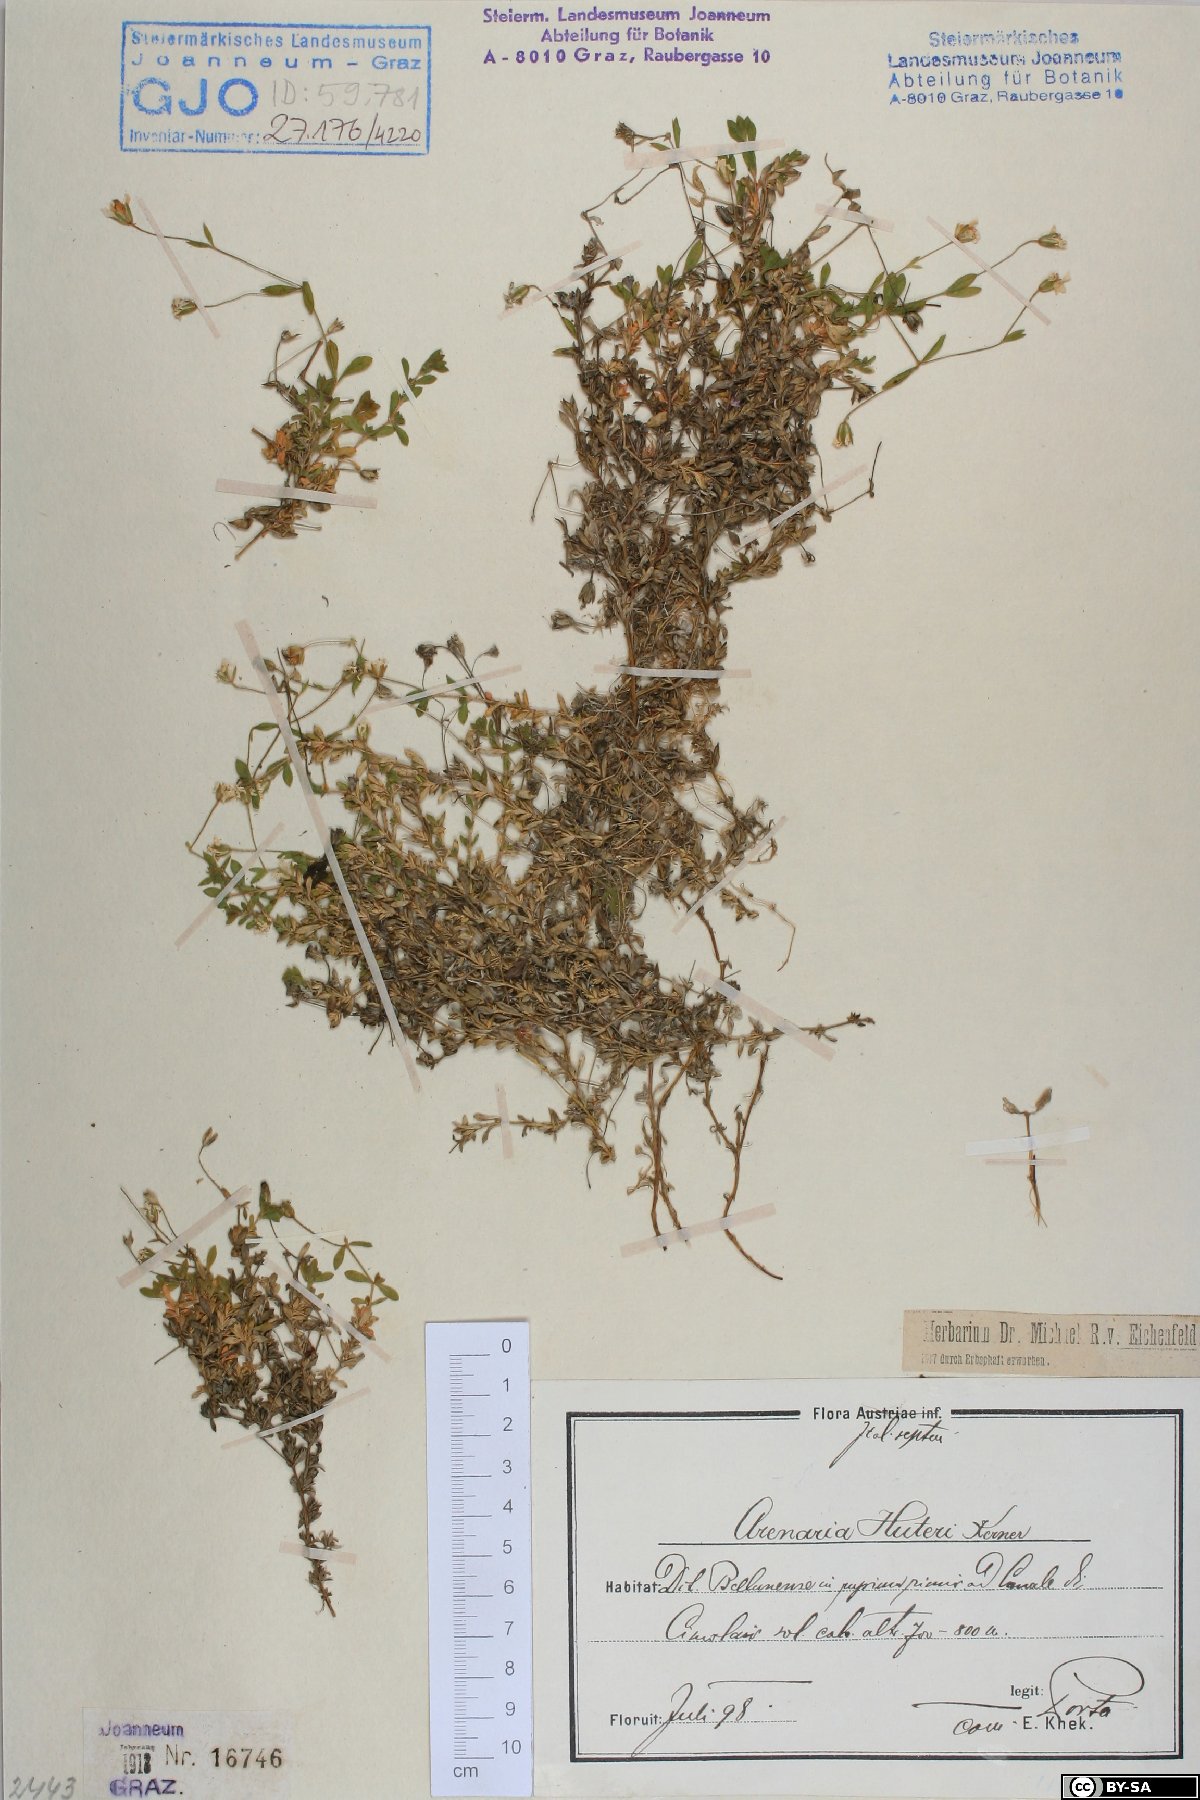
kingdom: Plantae
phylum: Tracheophyta
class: Magnoliopsida
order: Caryophyllales
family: Caryophyllaceae
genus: Arenaria
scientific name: Arenaria huteri
